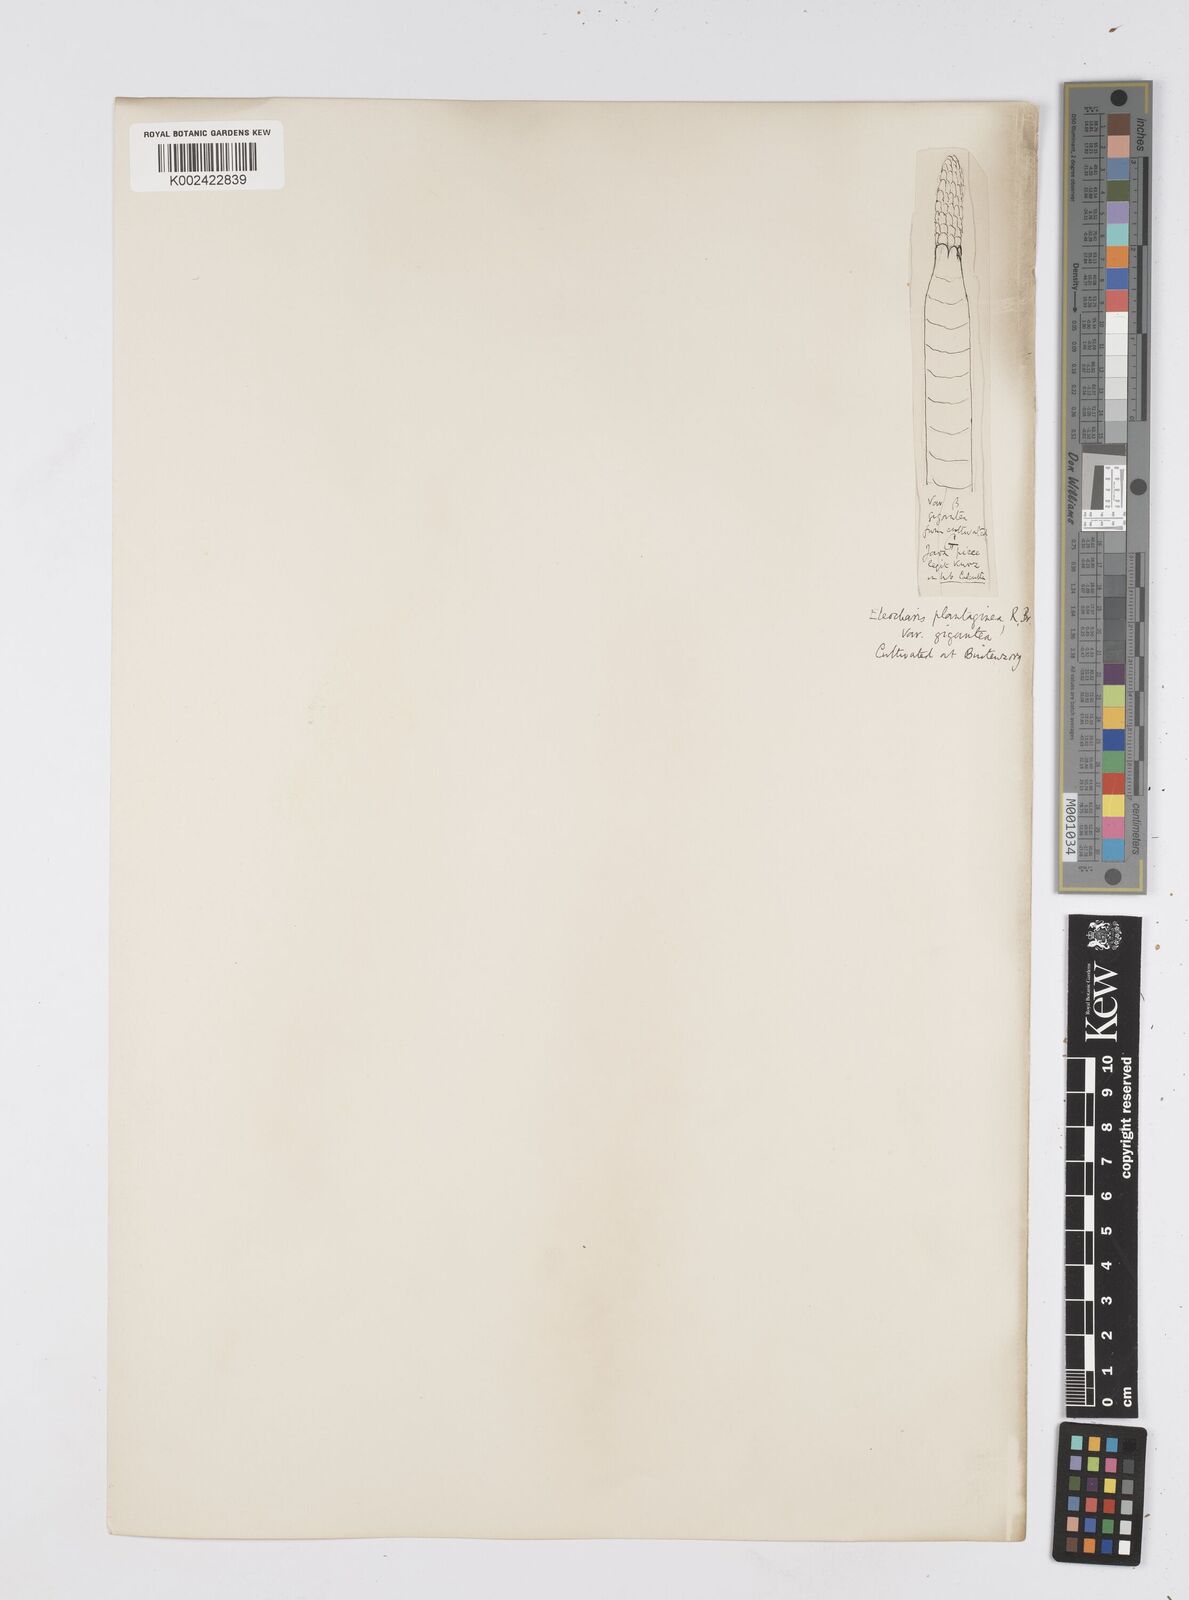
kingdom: Plantae
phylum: Tracheophyta
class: Liliopsida
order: Poales
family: Cyperaceae
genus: Eleocharis
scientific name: Eleocharis dulcis
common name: Chinese water chestnut
